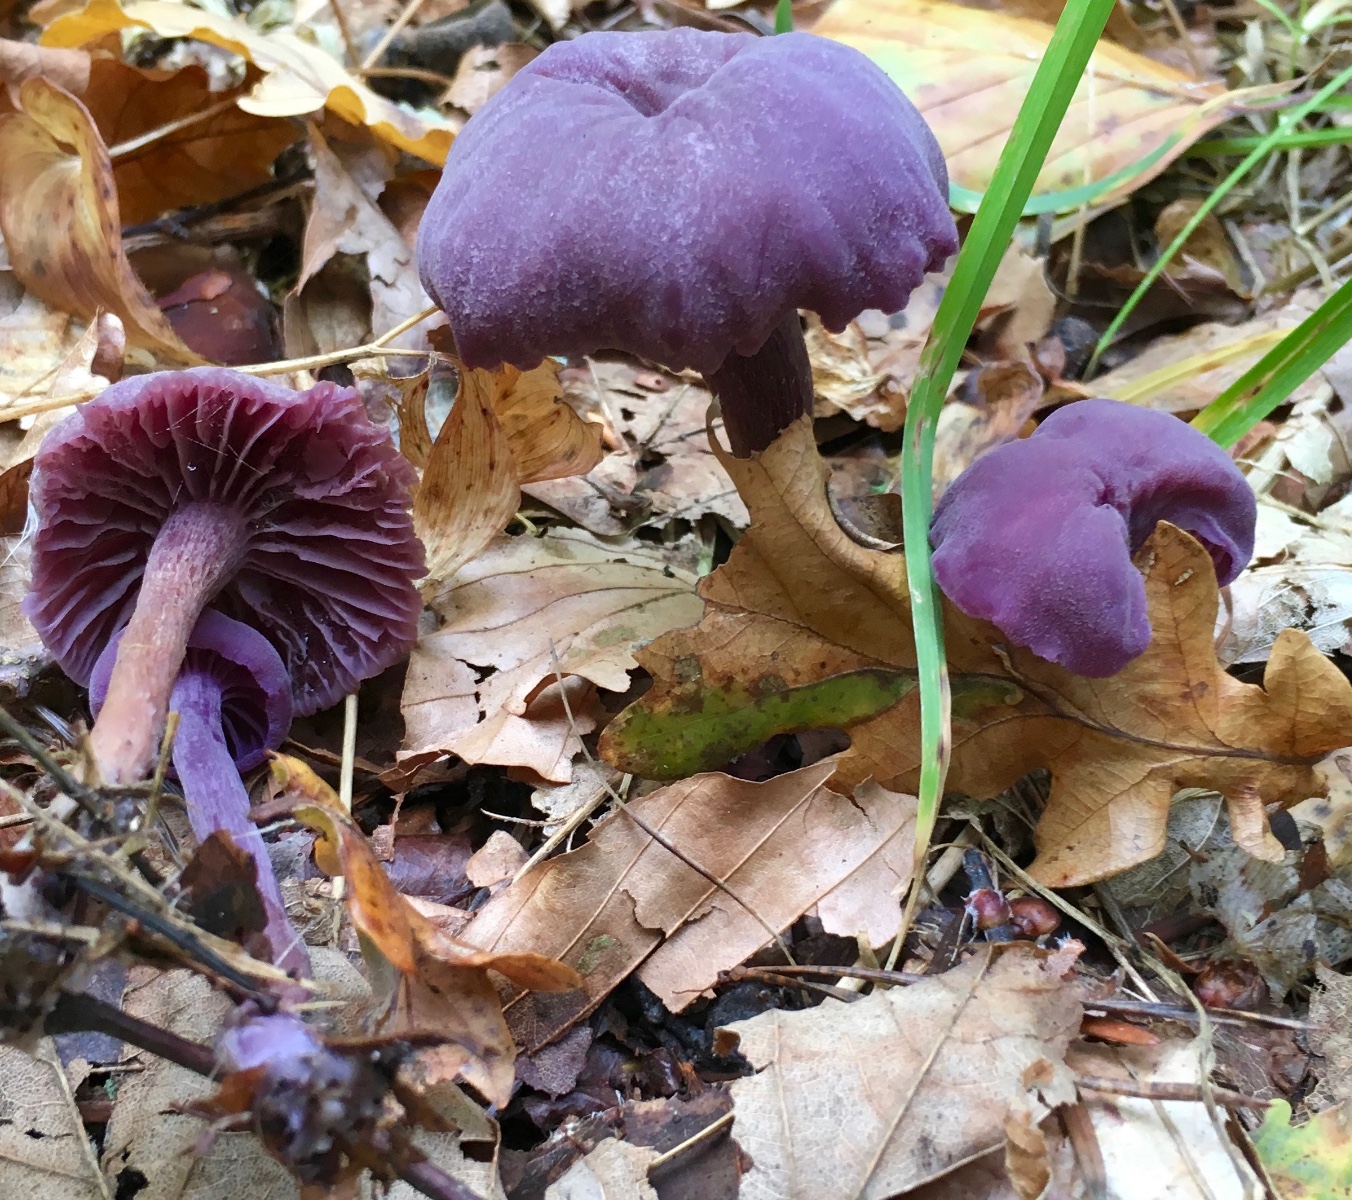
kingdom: Fungi
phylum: Basidiomycota
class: Agaricomycetes
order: Agaricales
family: Hydnangiaceae
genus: Laccaria
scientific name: Laccaria amethystina
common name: violet ametysthat
